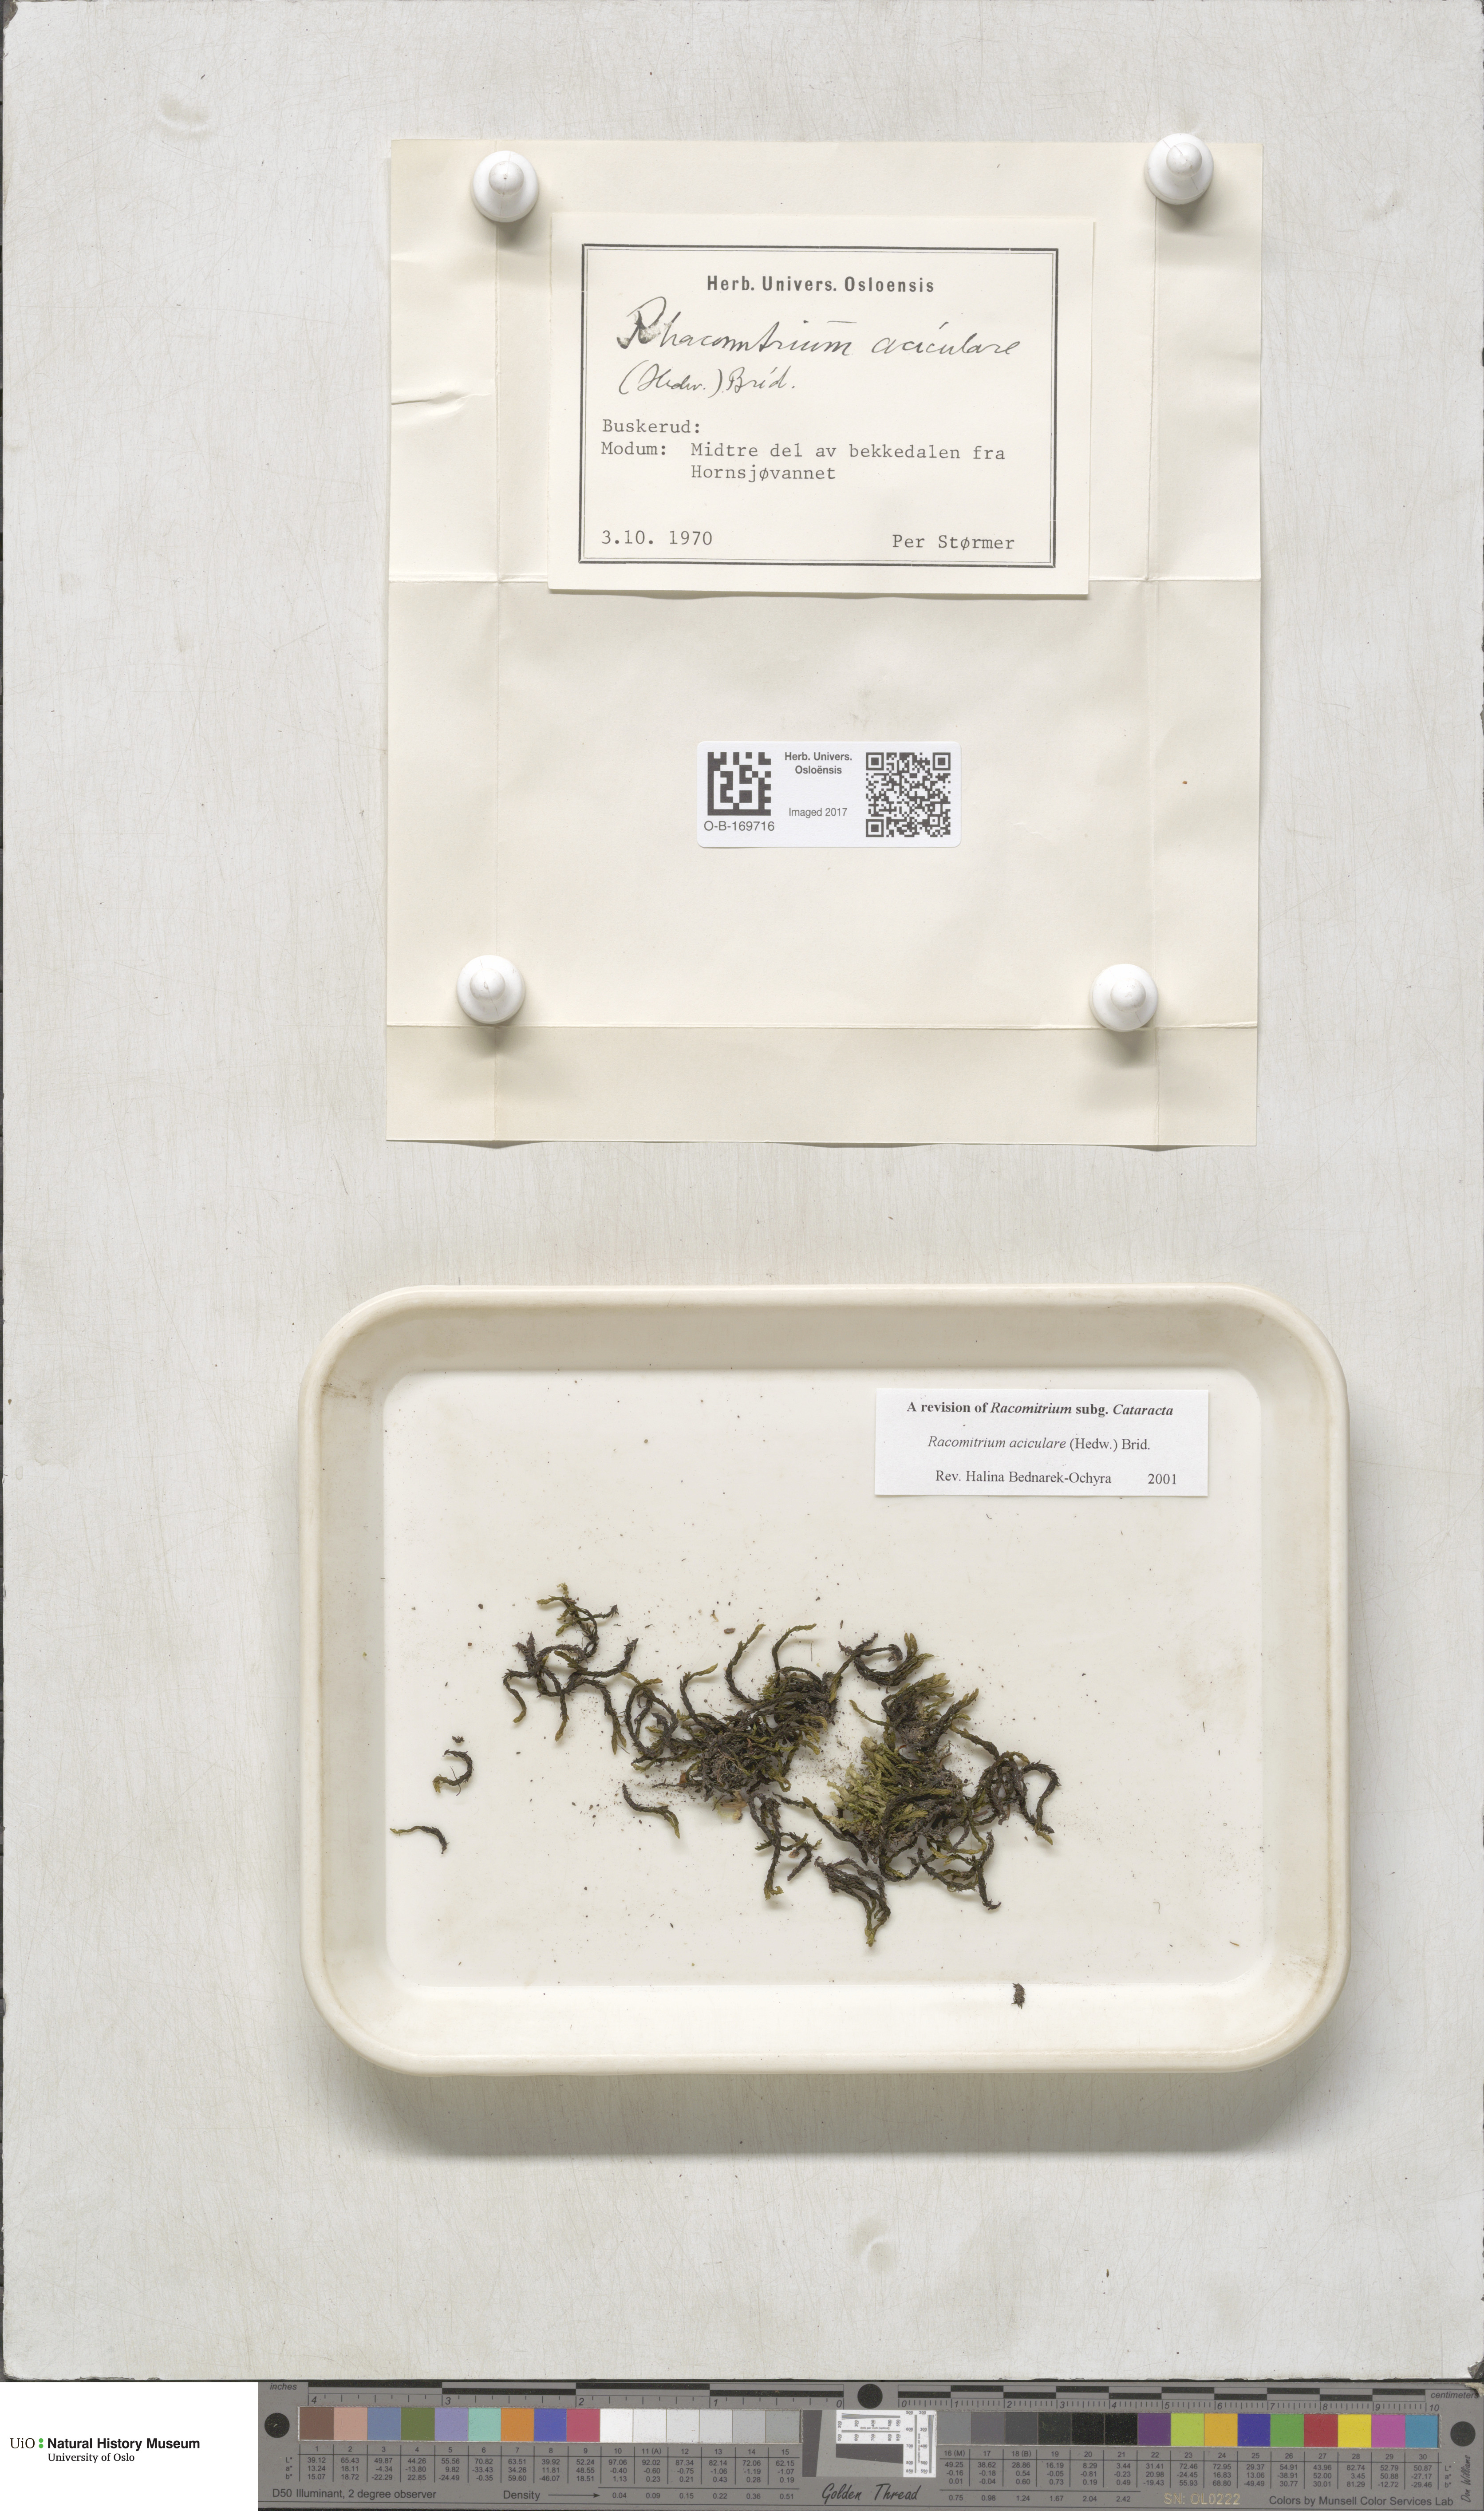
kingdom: Plantae
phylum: Bryophyta
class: Bryopsida
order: Grimmiales
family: Grimmiaceae
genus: Codriophorus
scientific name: Codriophorus acicularis
